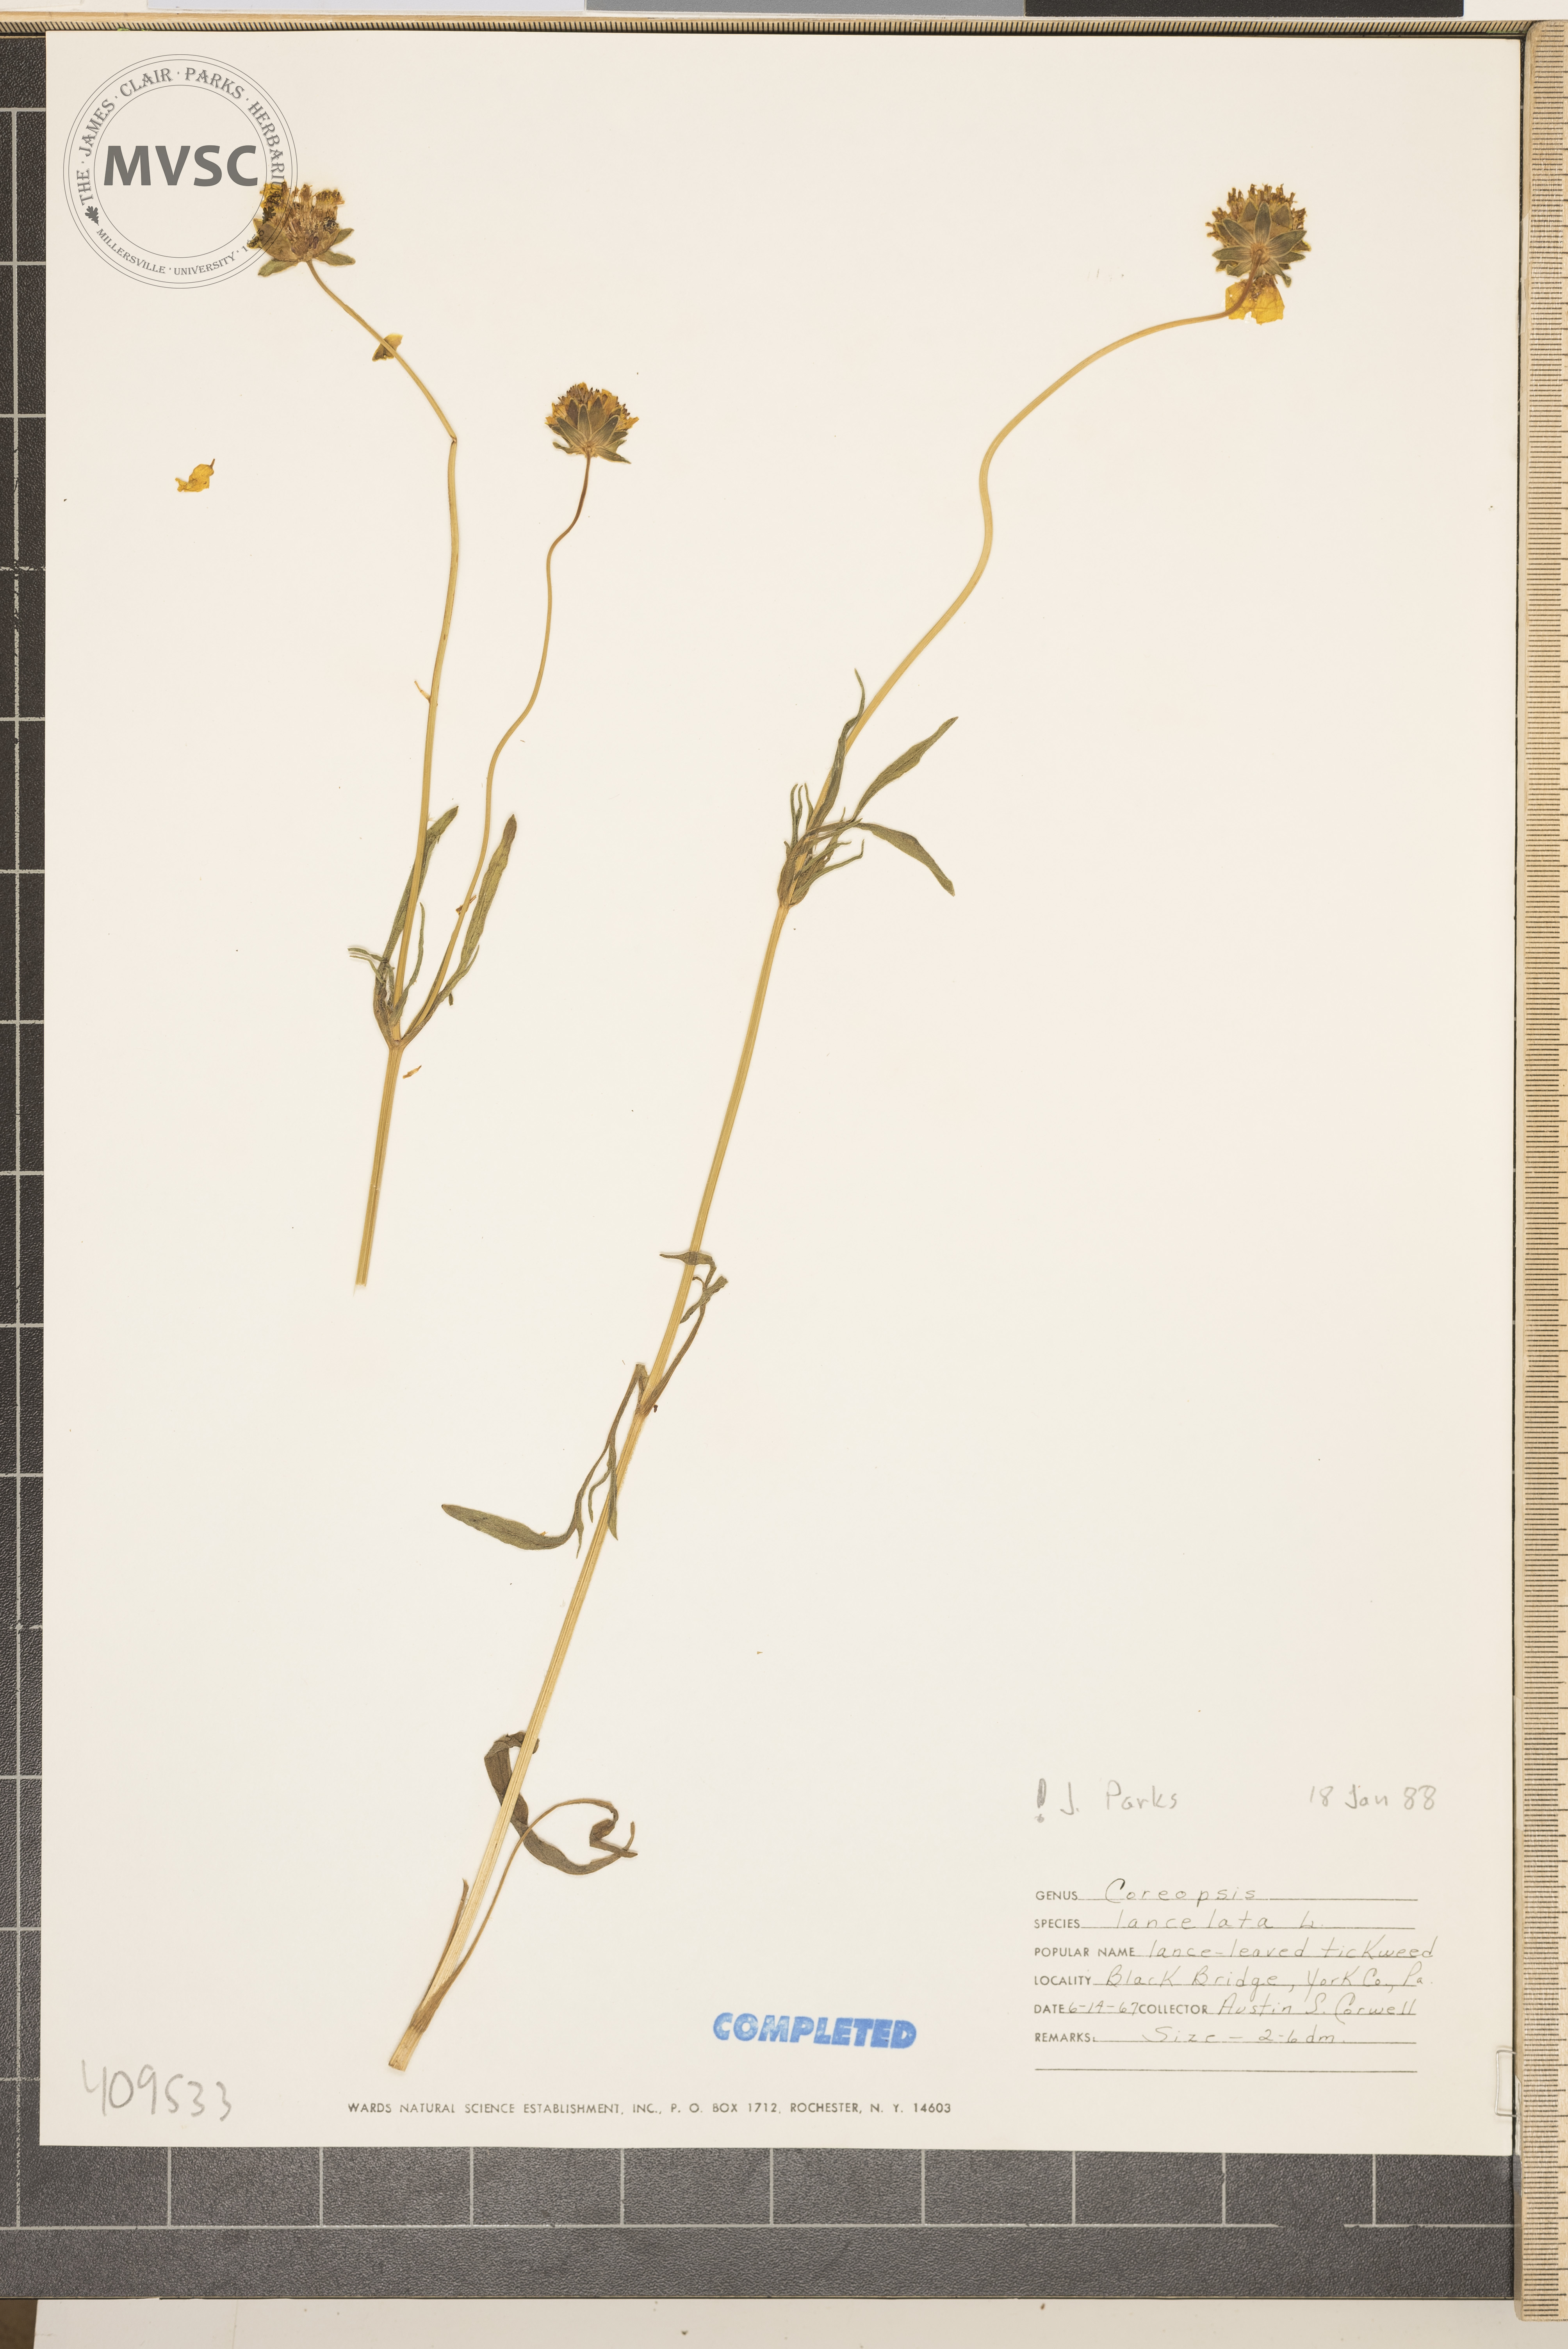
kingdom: Plantae
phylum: Tracheophyta
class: Magnoliopsida
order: Asterales
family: Asteraceae
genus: Coreopsis
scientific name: Coreopsis lanceolata
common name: Garden coreopsis
